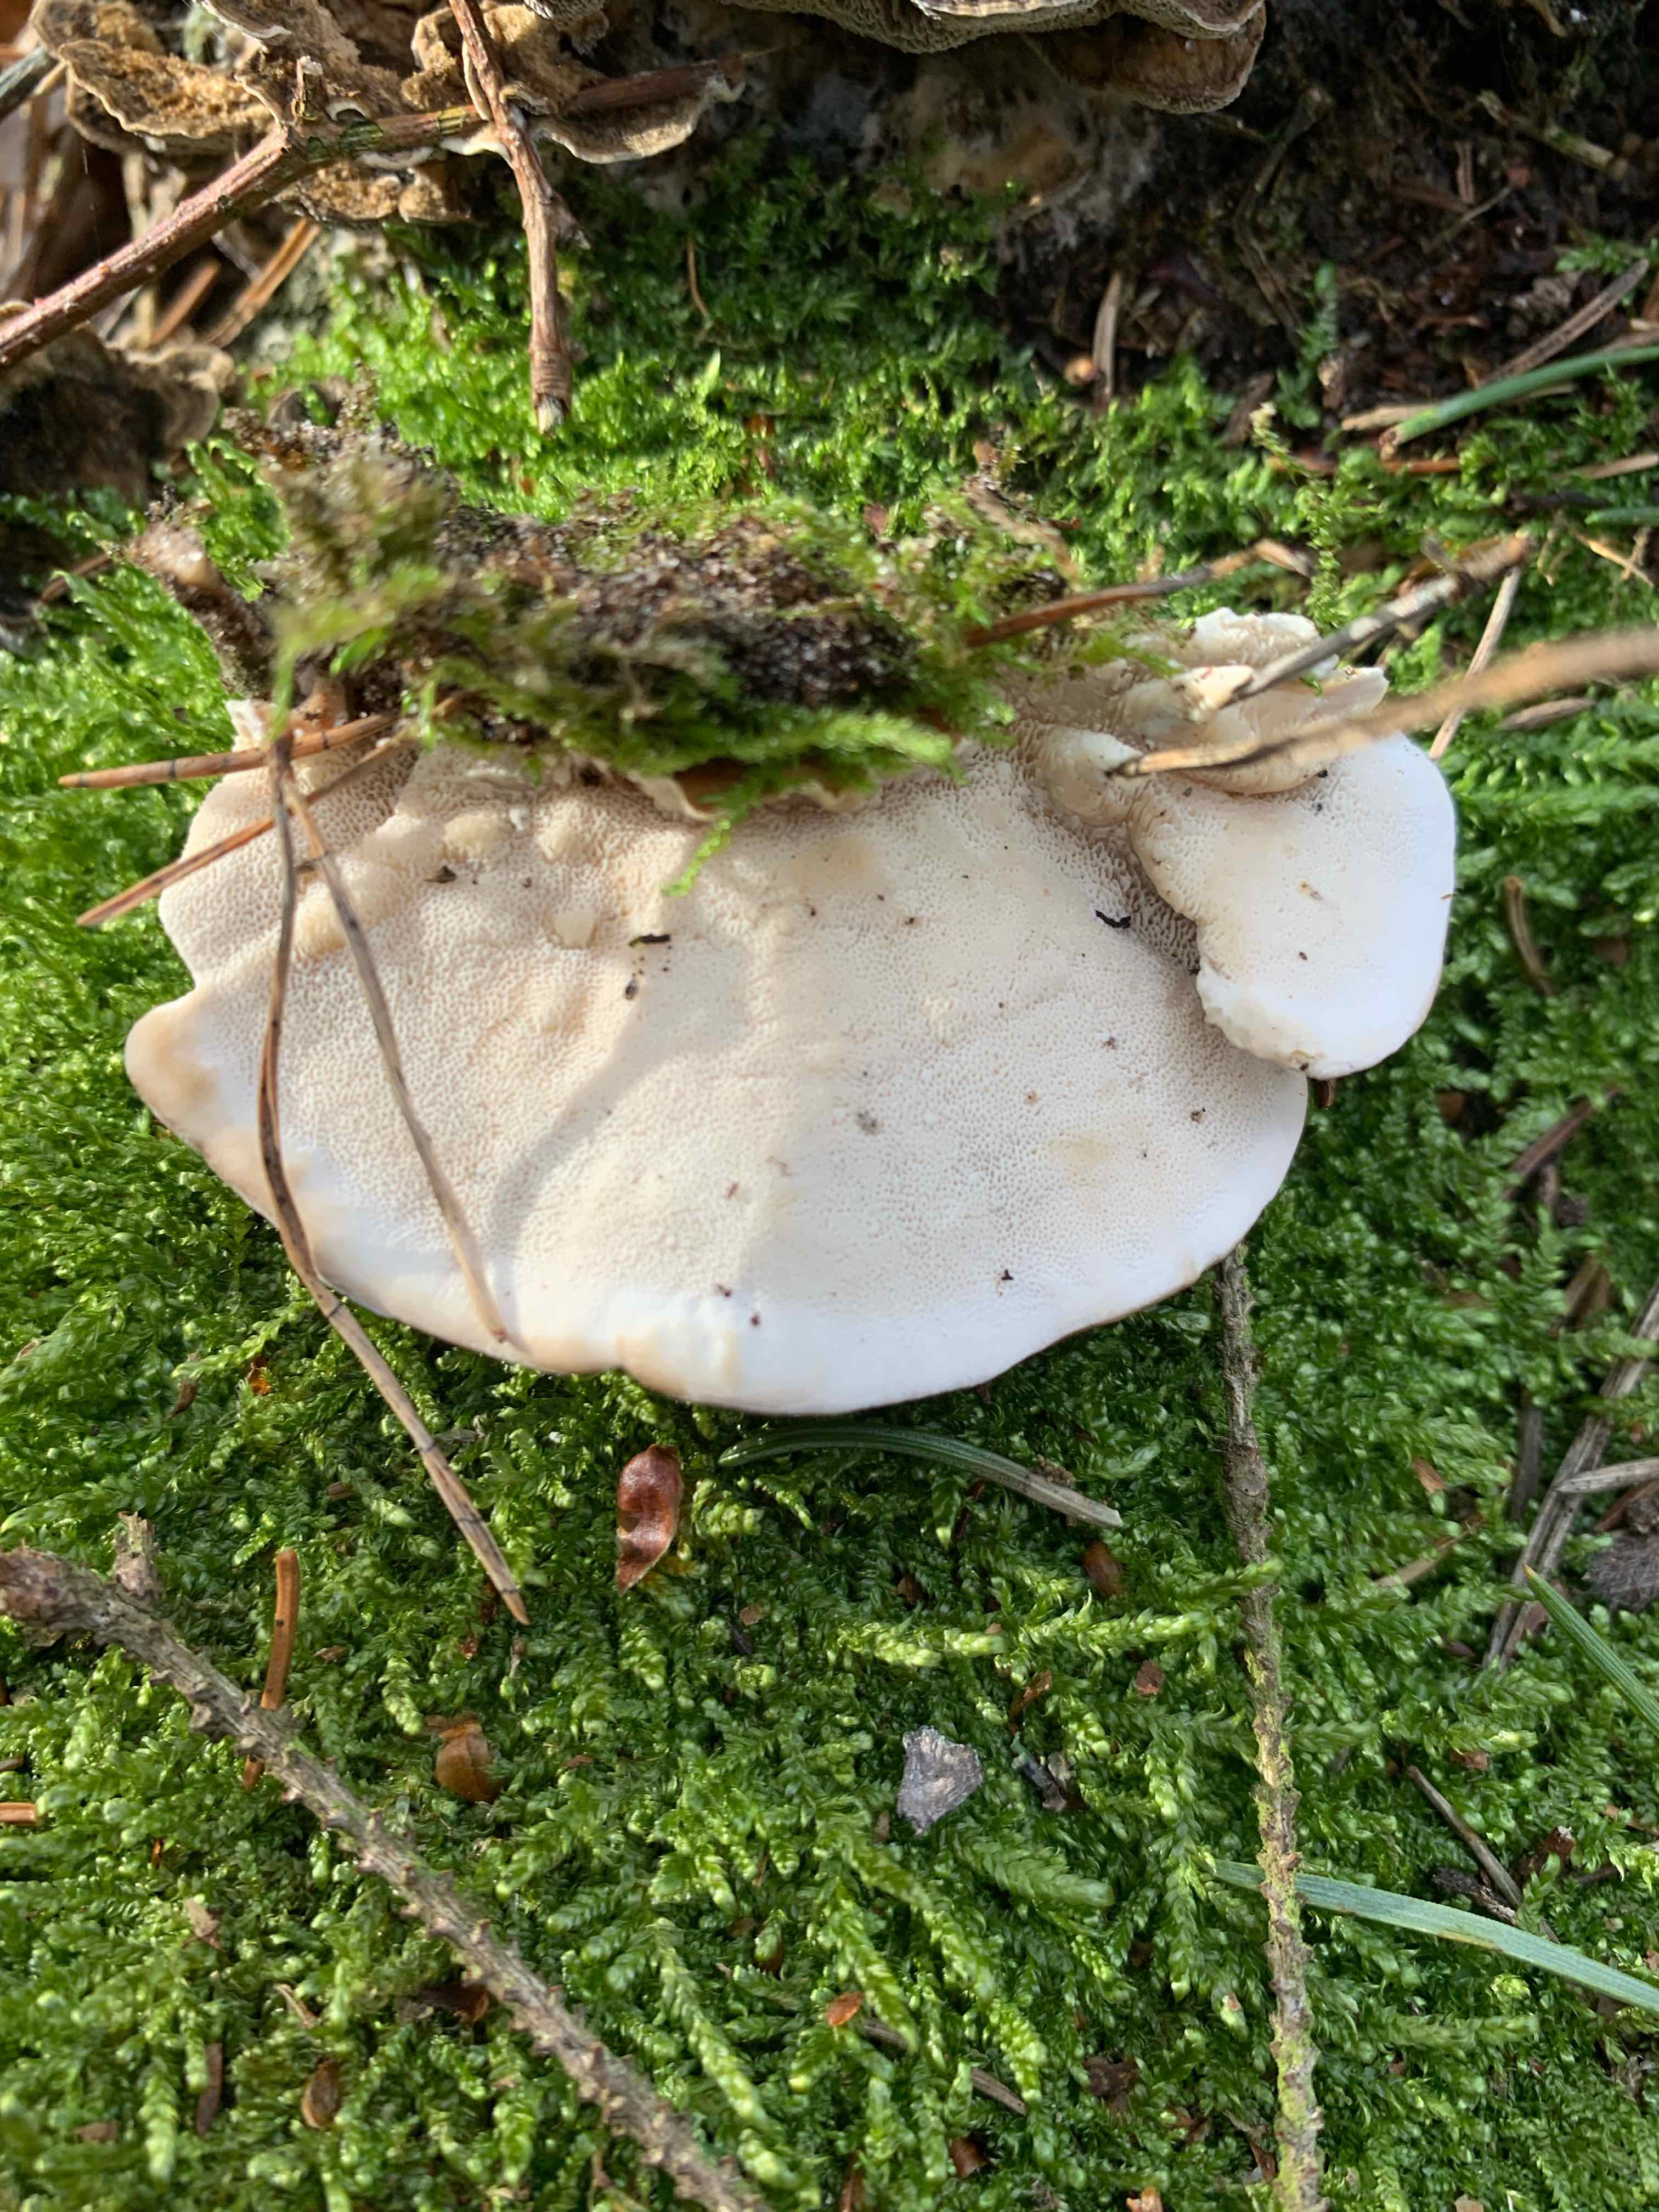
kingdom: Fungi
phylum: Basidiomycota
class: Agaricomycetes
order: Polyporales
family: Polyporaceae
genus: Trametes
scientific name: Trametes versicolor
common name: broget læderporesvamp
